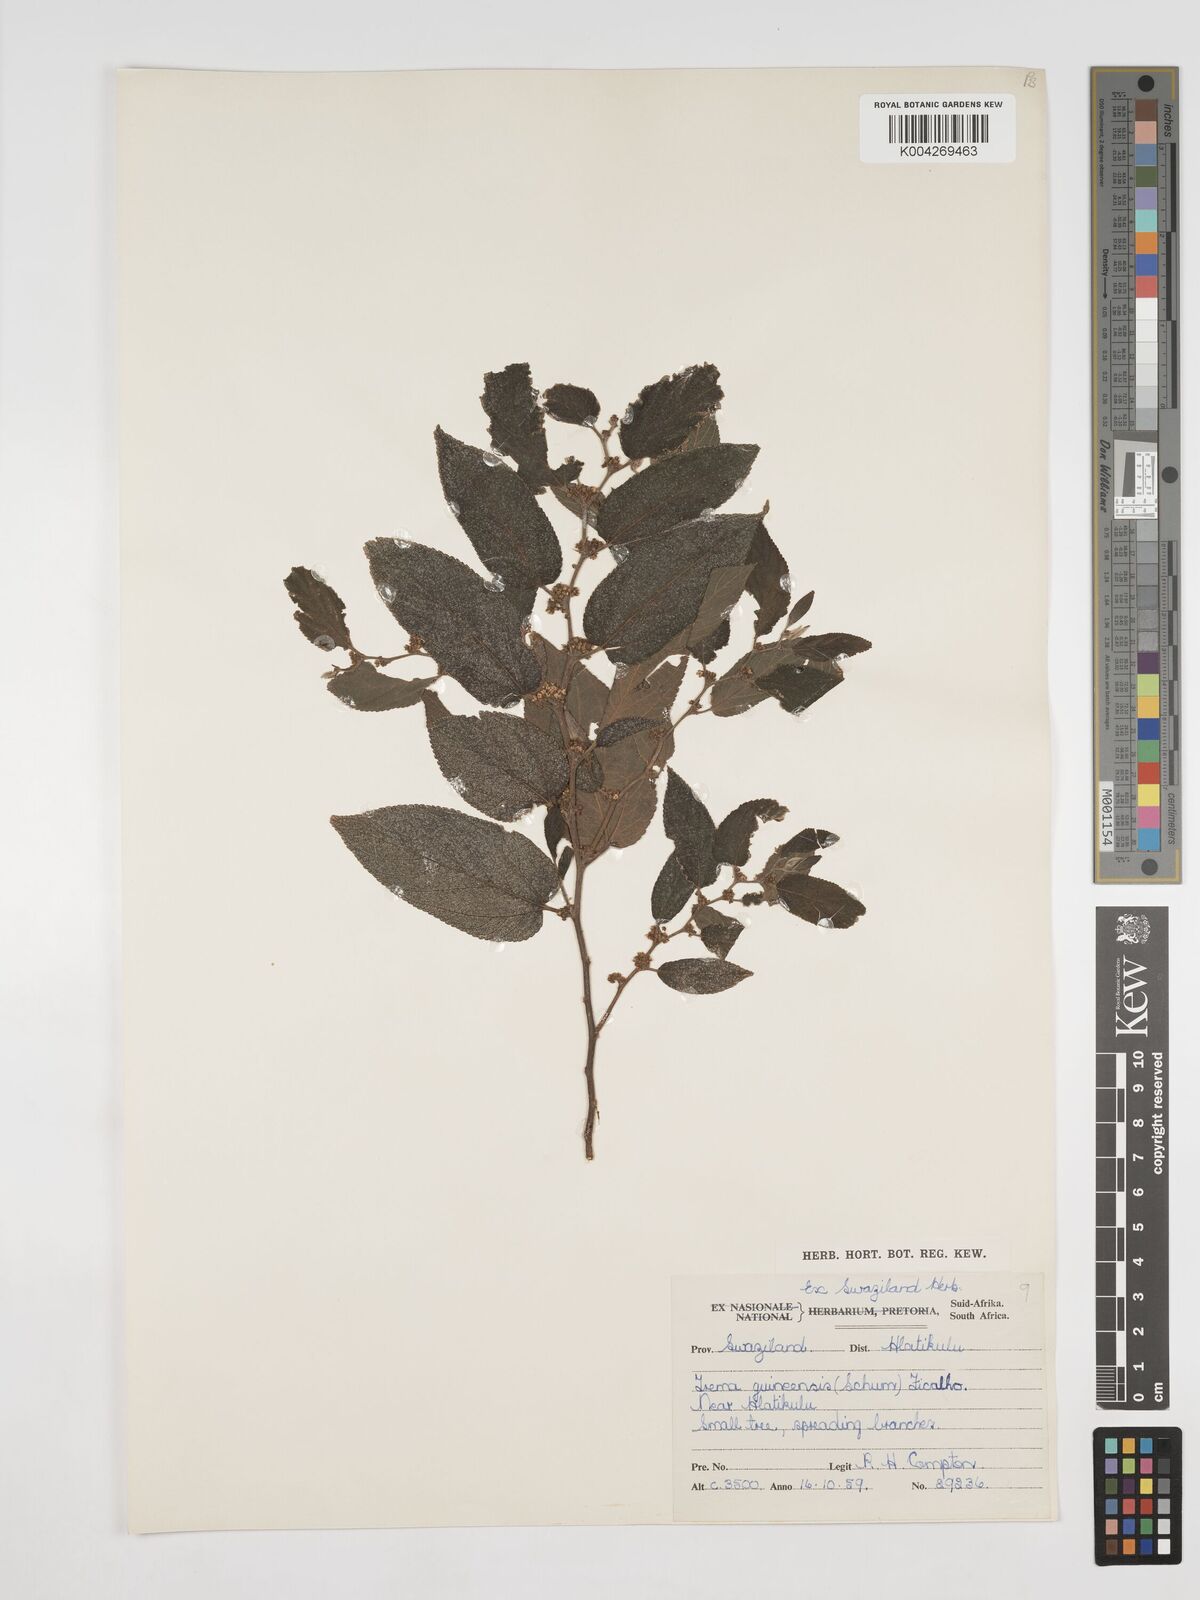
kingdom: Plantae
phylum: Tracheophyta
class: Magnoliopsida
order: Rosales
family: Cannabaceae
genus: Trema
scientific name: Trema orientale
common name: Indian charcoal tree
